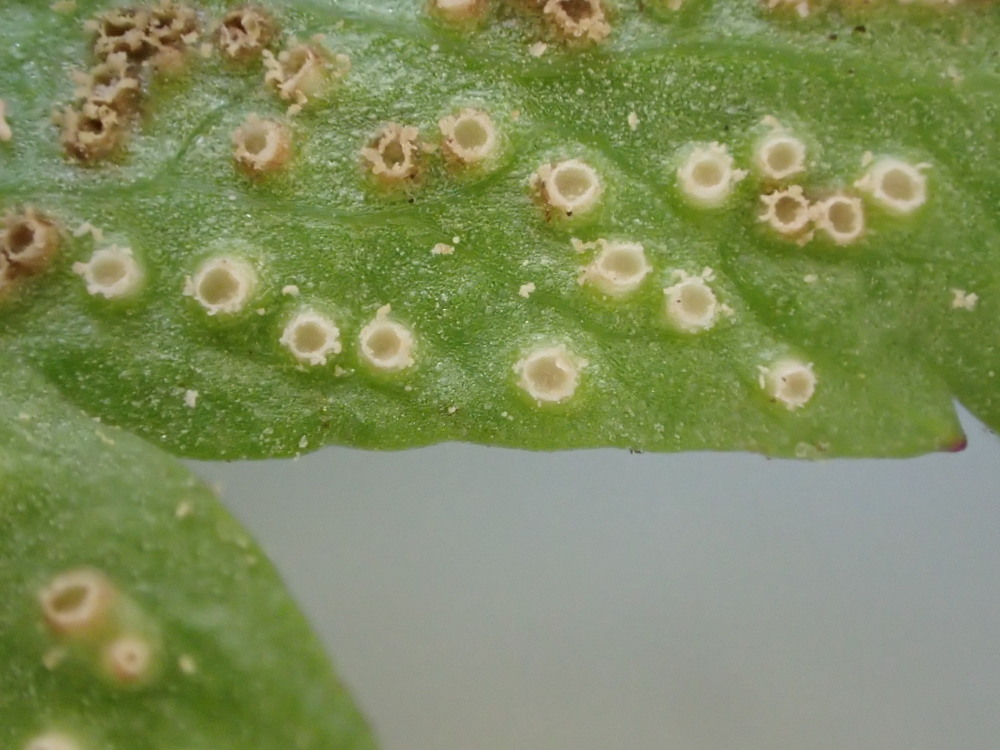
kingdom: Fungi
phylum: Basidiomycota
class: Pucciniomycetes
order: Pucciniales
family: Ochropsoraceae
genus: Ochropsora
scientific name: Ochropsora ariae
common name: anemone-okkerpletrust
